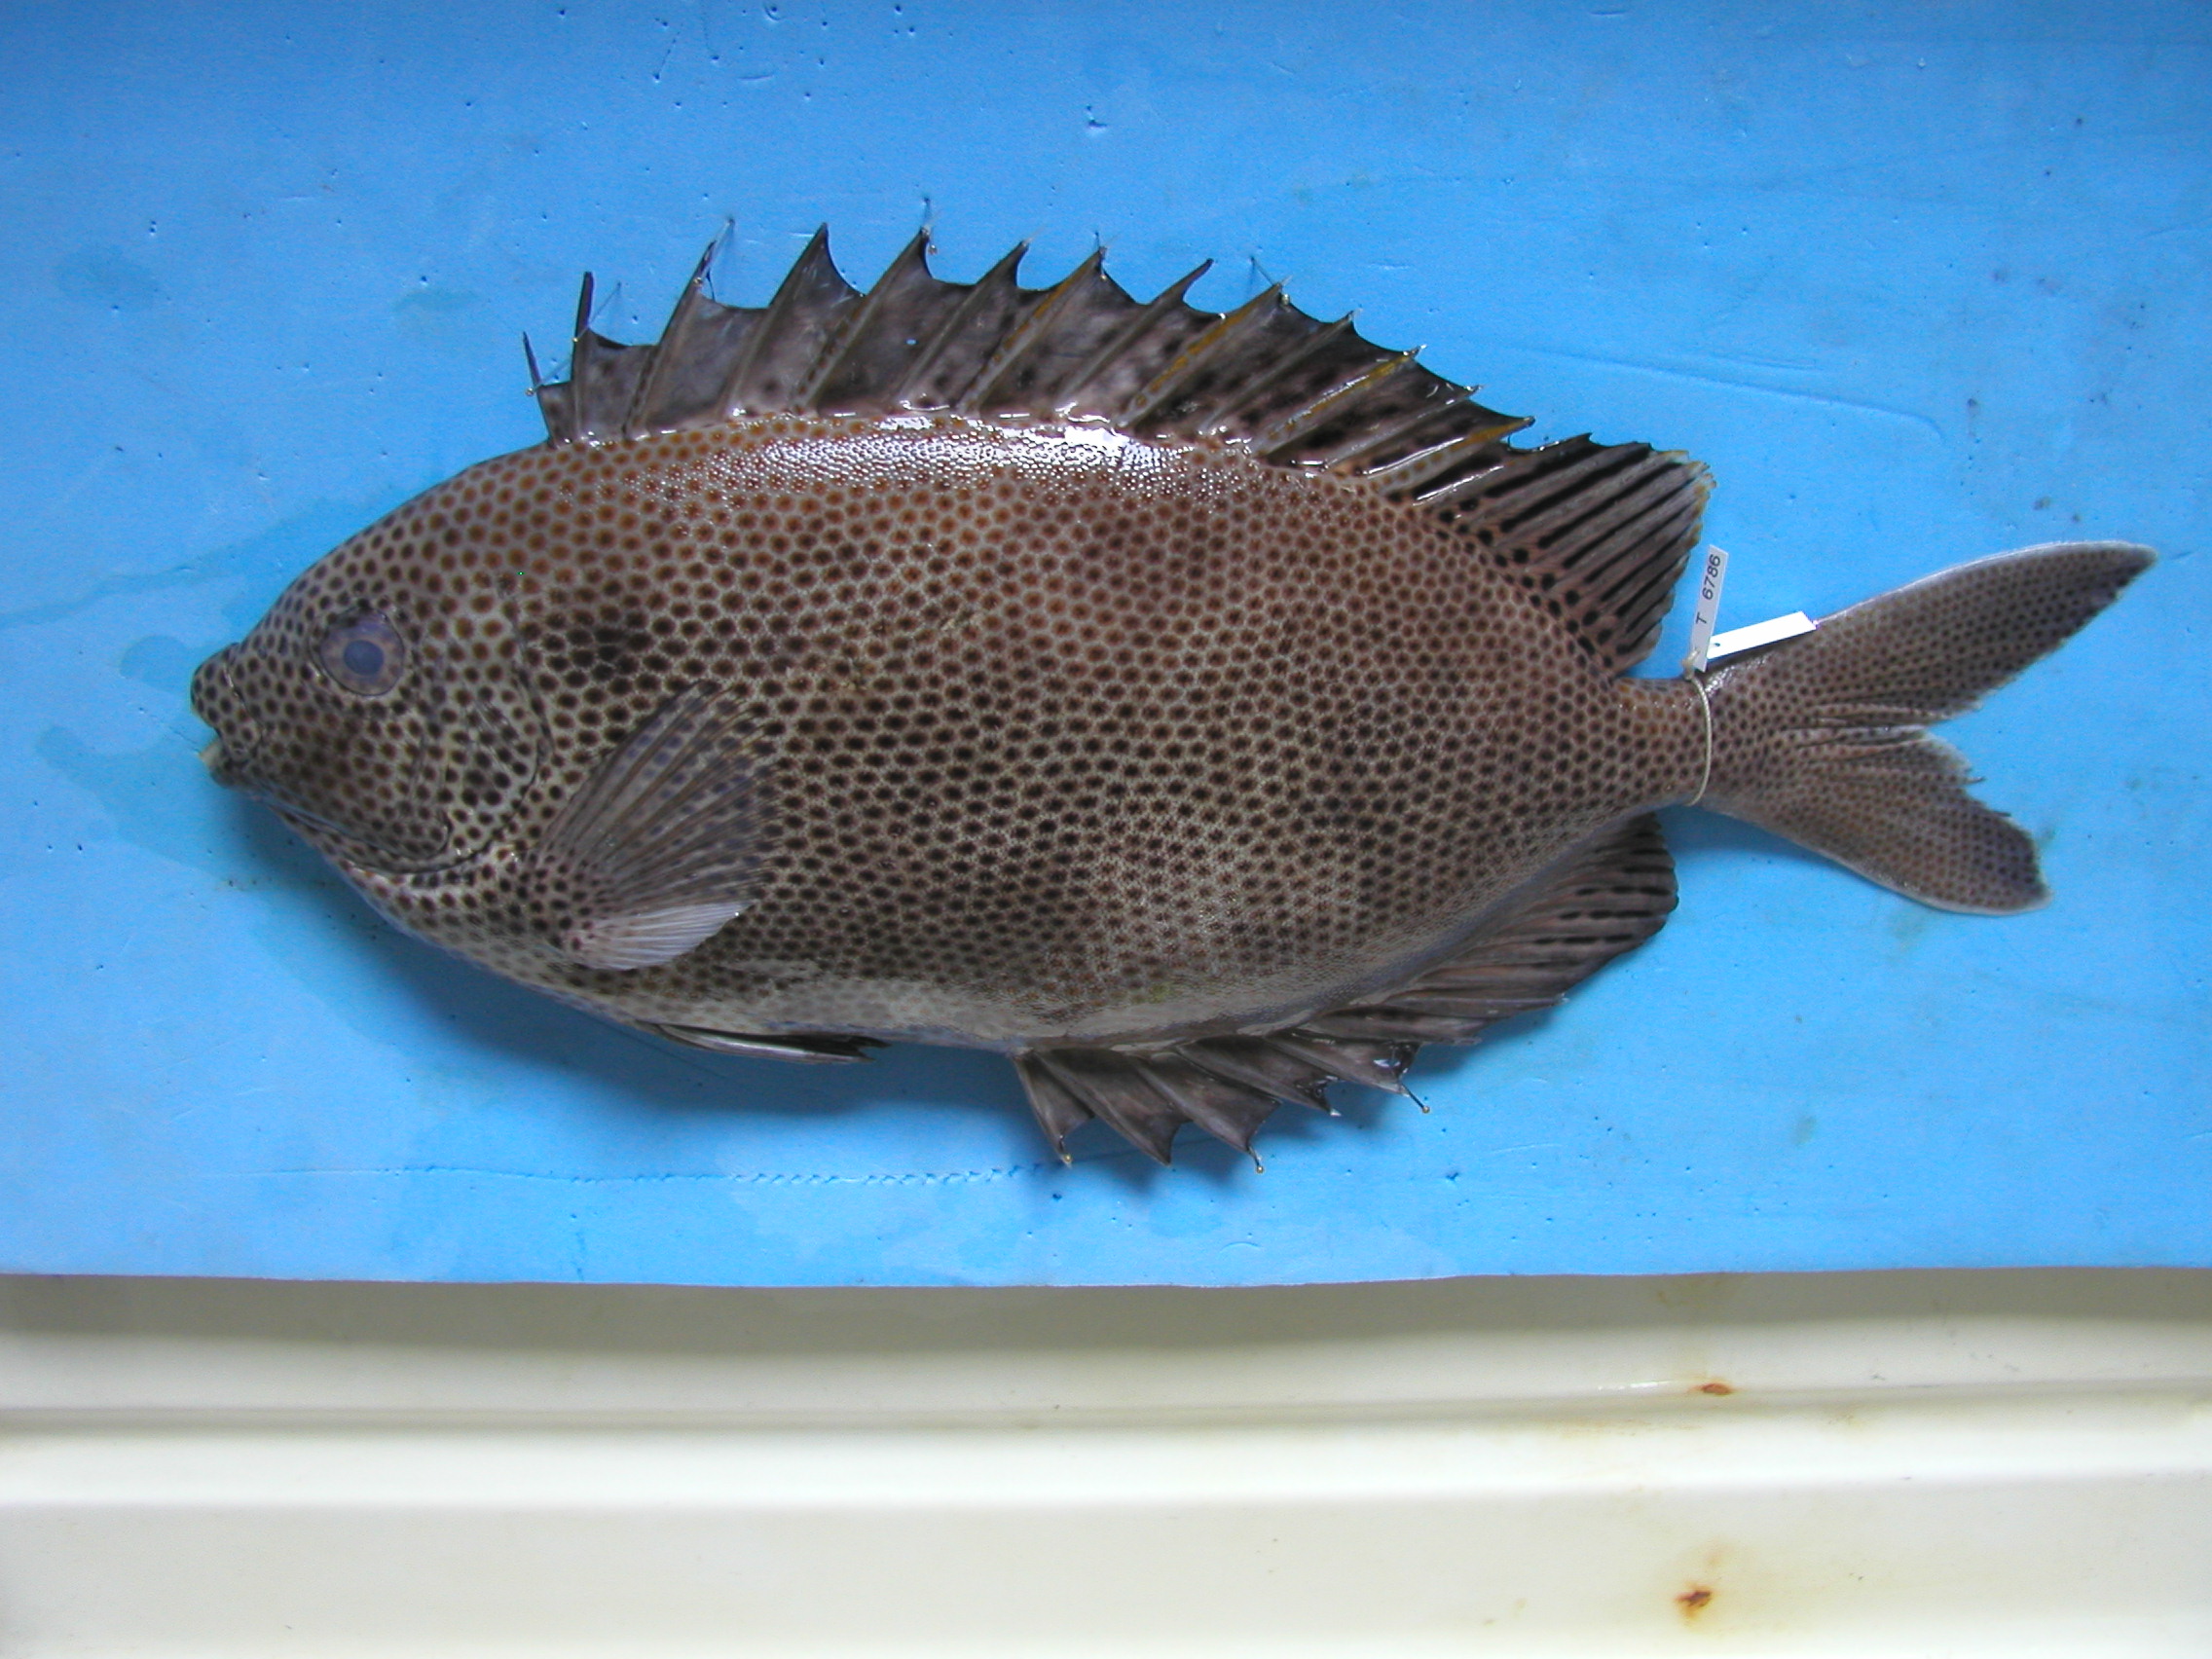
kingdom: Animalia
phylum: Chordata
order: Perciformes
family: Siganidae
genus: Siganus
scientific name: Siganus stellatus
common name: Brown-spotted spinefoot
